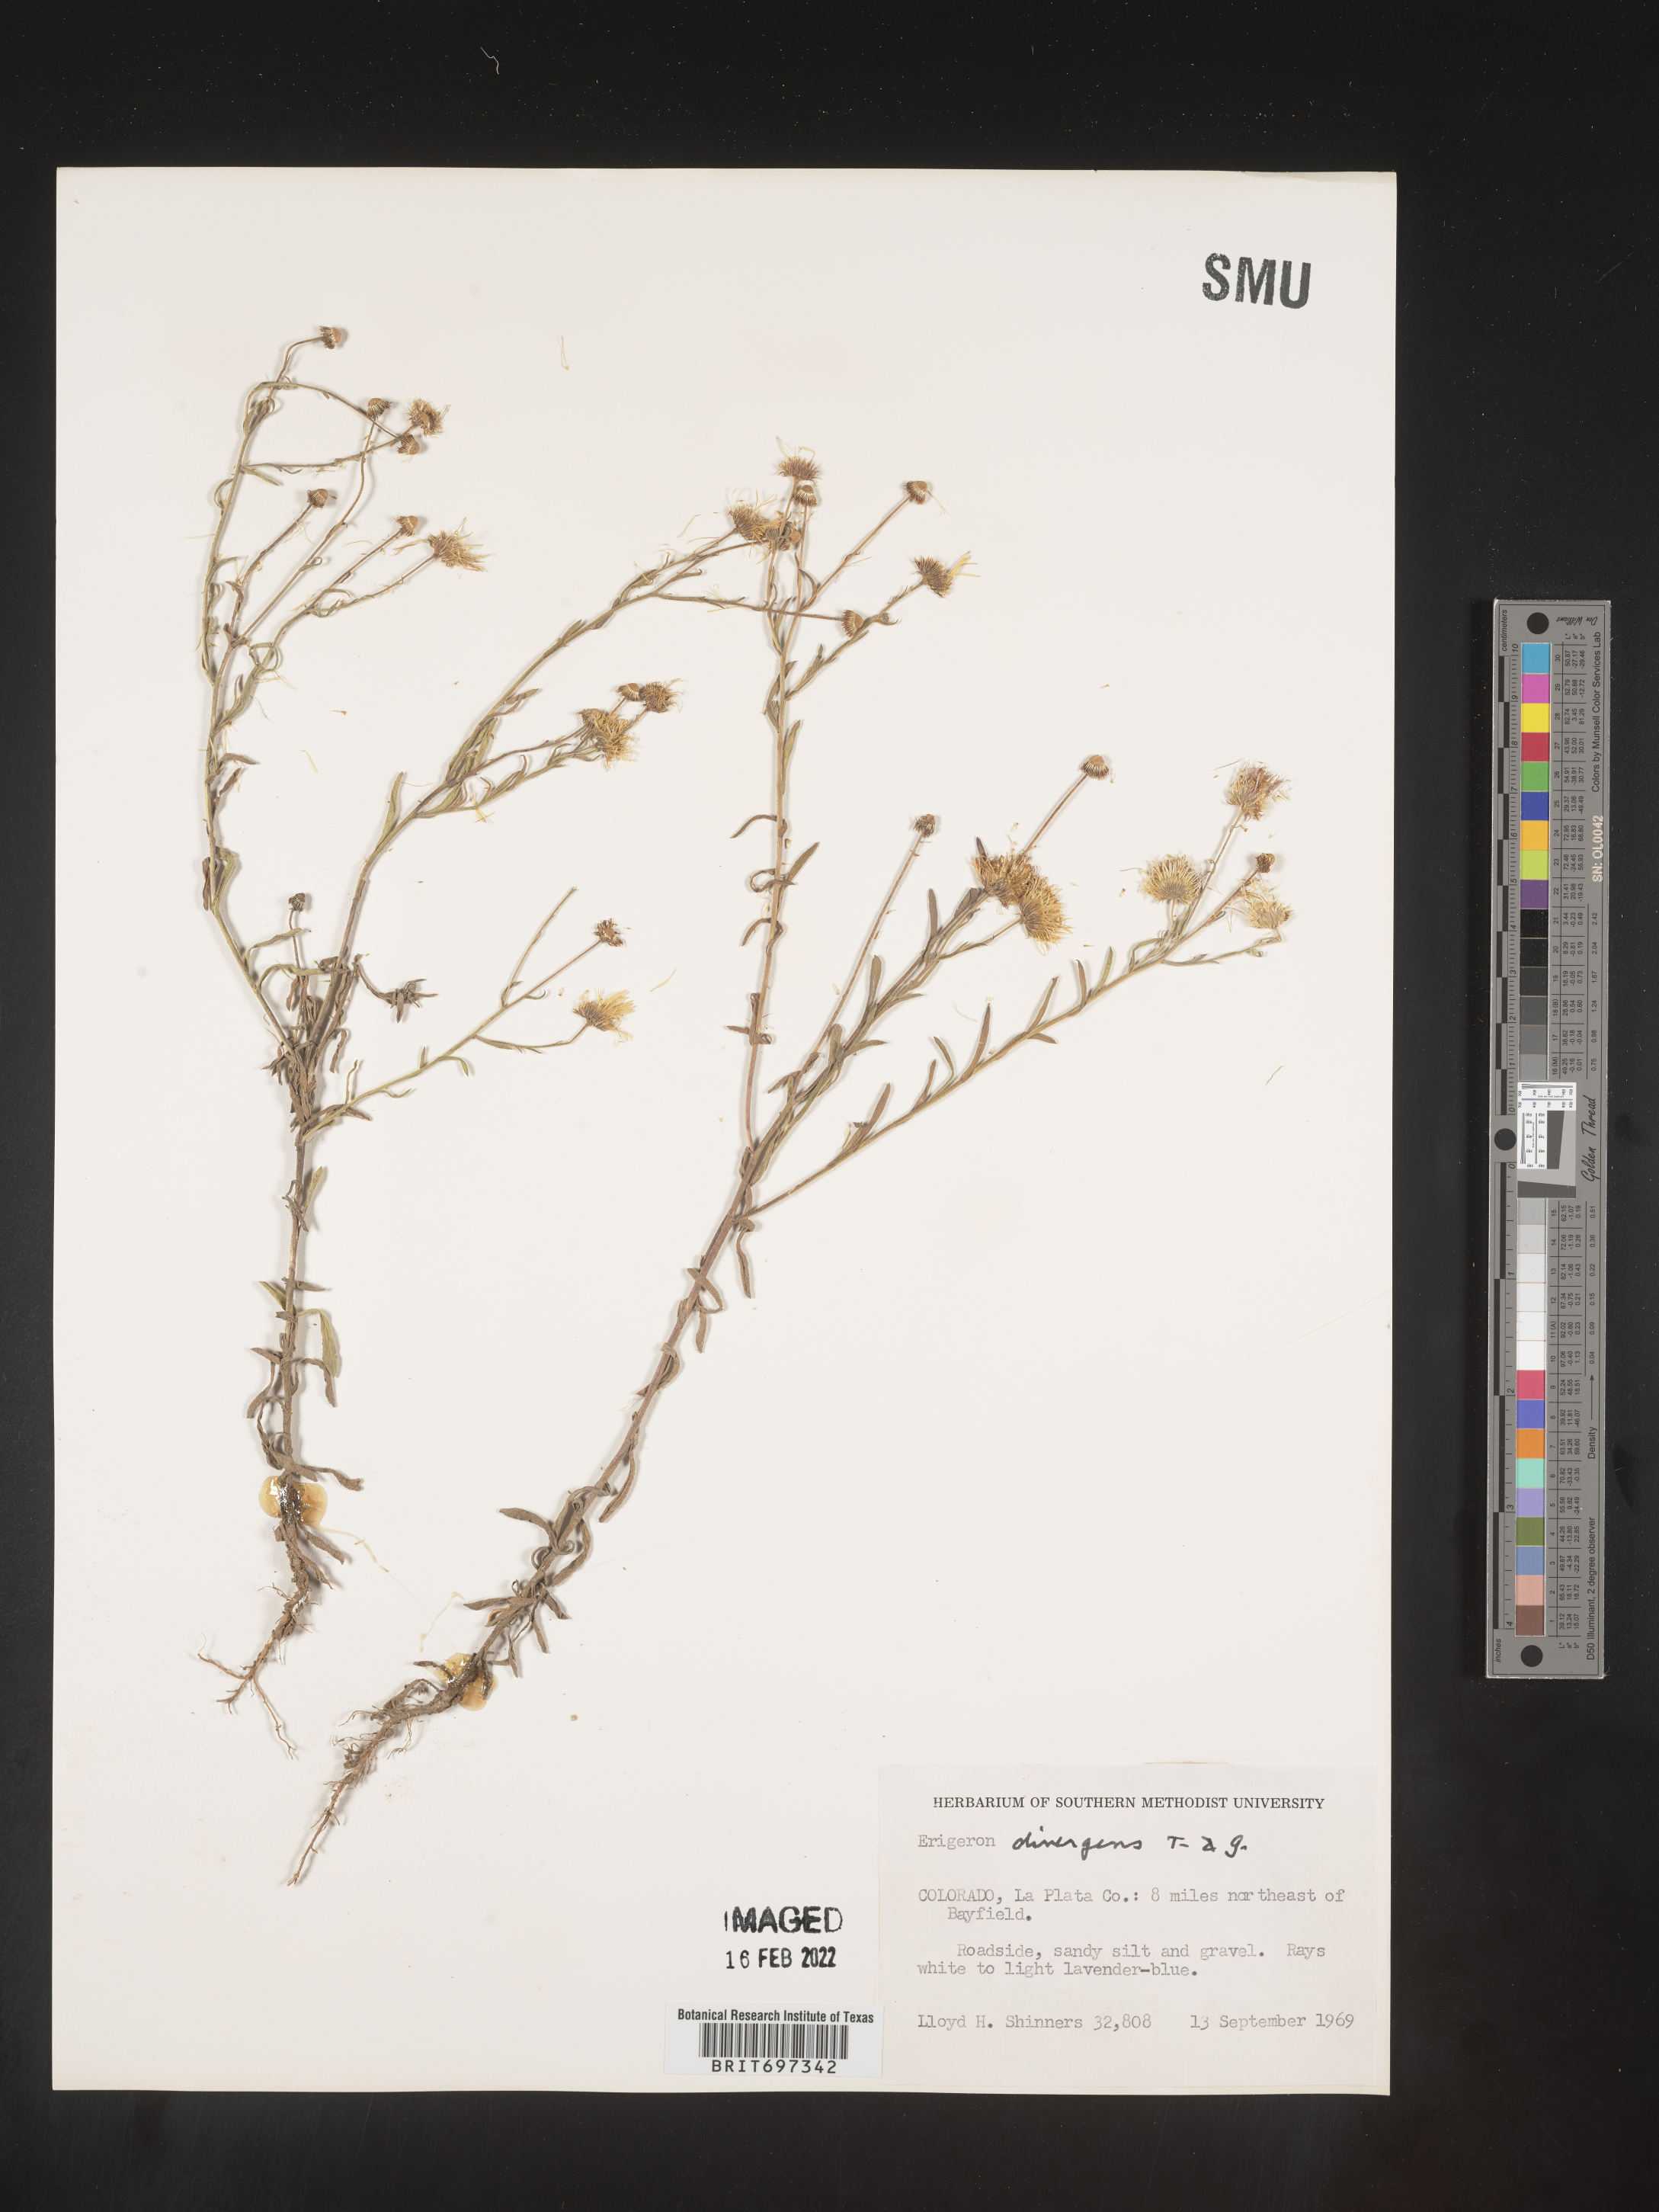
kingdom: Plantae
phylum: Tracheophyta
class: Magnoliopsida
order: Asterales
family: Asteraceae
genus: Erigeron
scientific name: Erigeron divergens
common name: Diffuse fleabane
